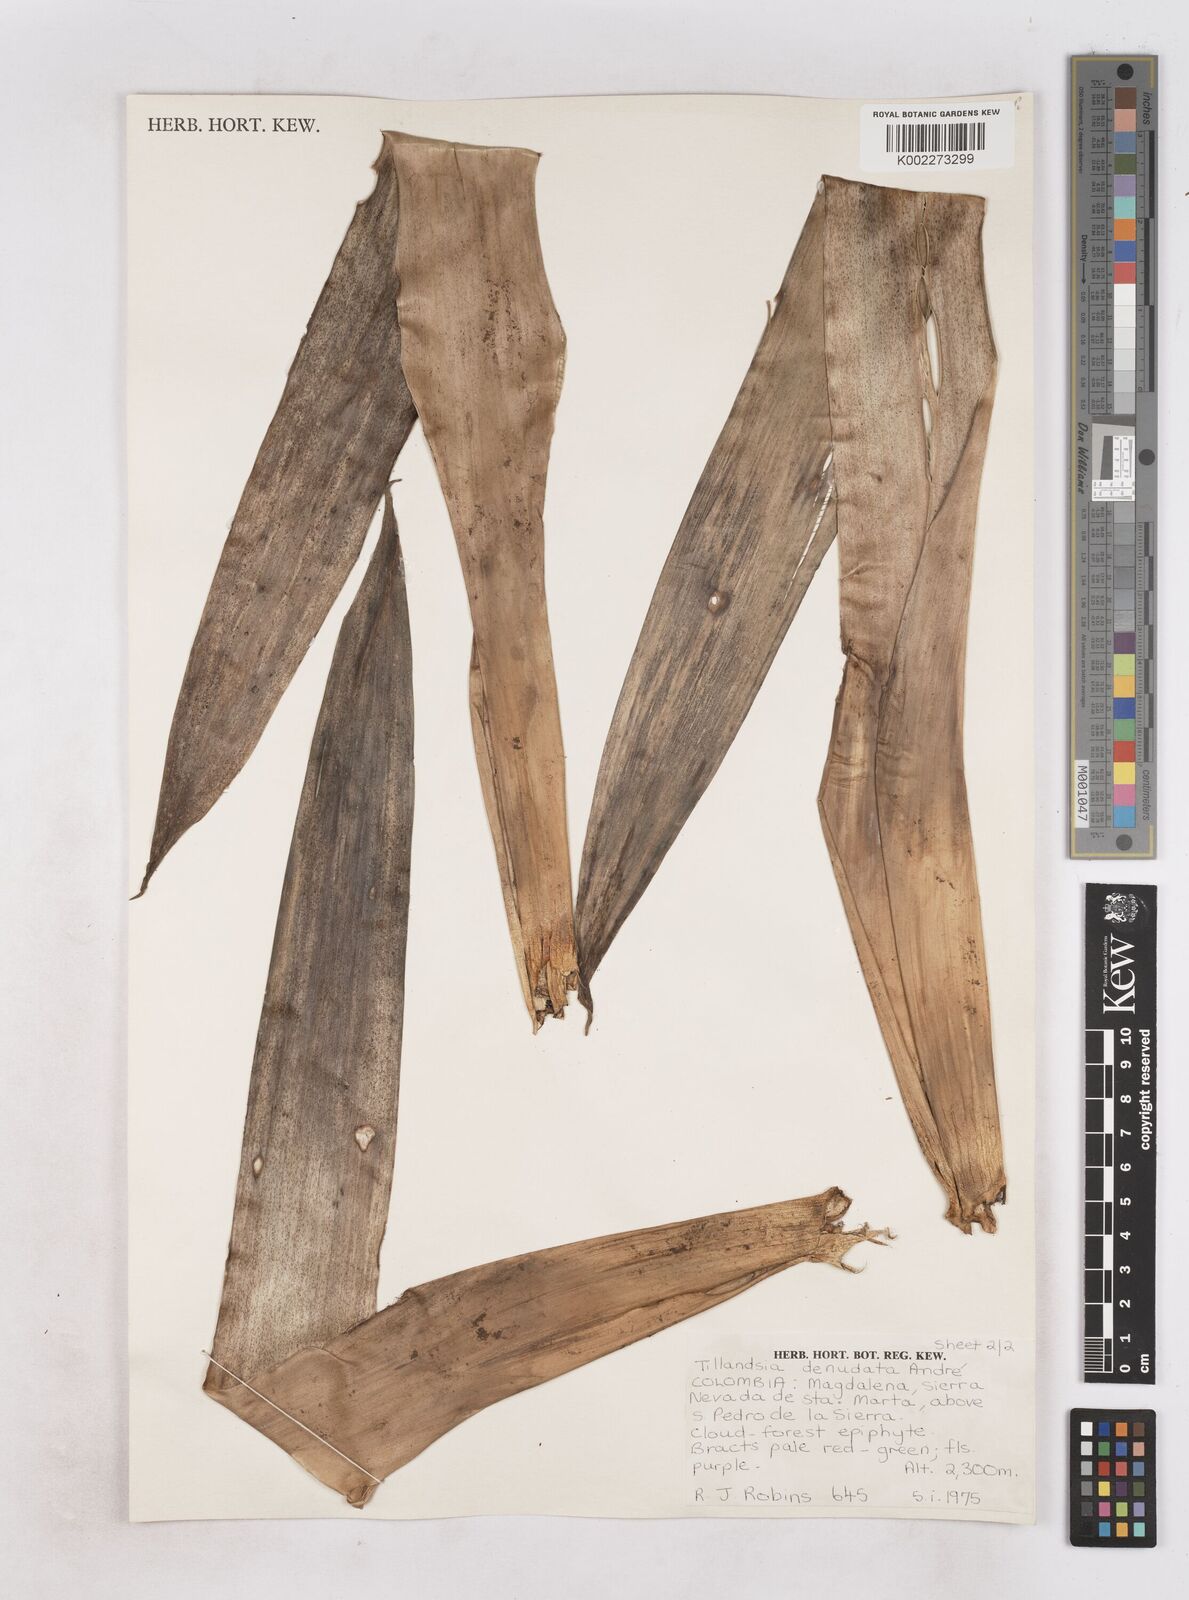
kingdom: Plantae
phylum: Tracheophyta
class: Liliopsida
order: Poales
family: Bromeliaceae
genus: Tillandsia
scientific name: Tillandsia denudata
